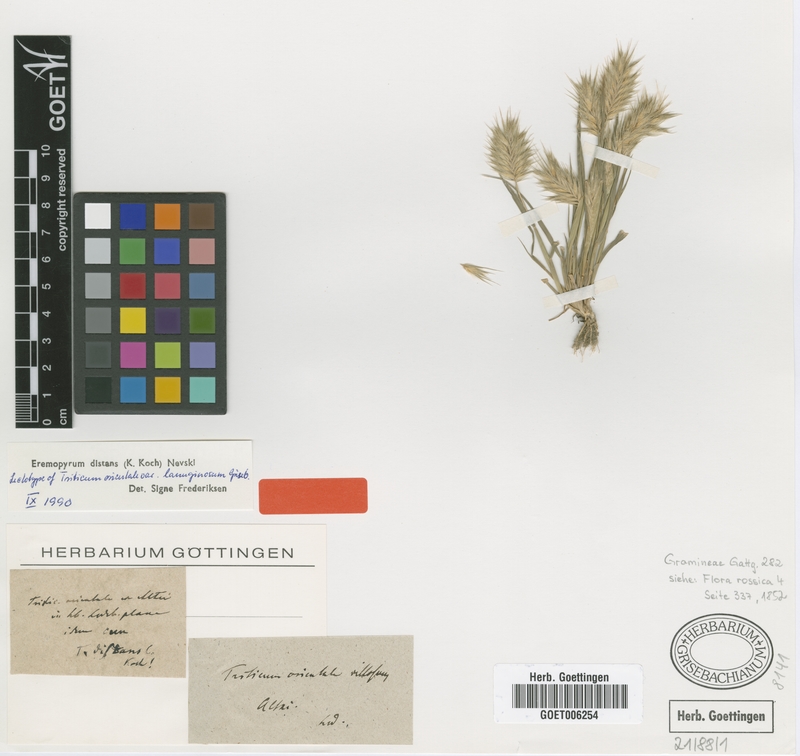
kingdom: Plantae
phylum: Tracheophyta
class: Liliopsida
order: Poales
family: Poaceae
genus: Eremopyrum
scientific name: Eremopyrum distans
